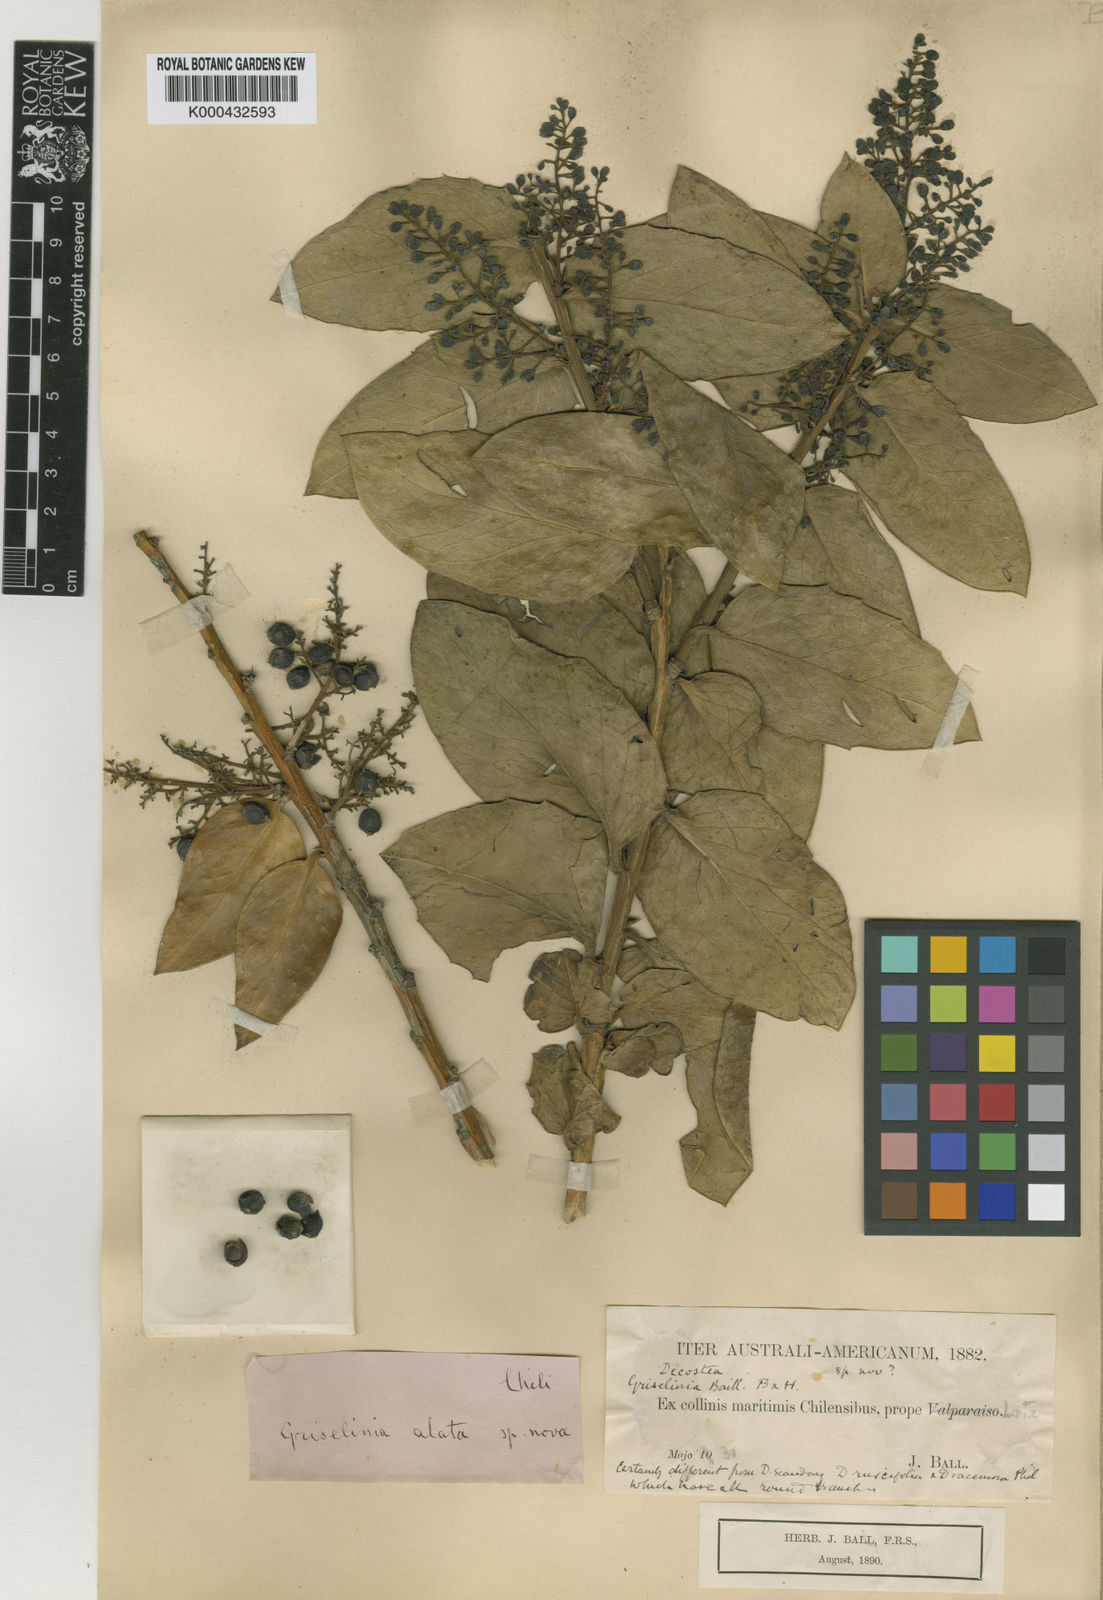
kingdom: Plantae
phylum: Tracheophyta
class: Magnoliopsida
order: Apiales
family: Griseliniaceae
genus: Griselinia
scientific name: Griselinia scandens
